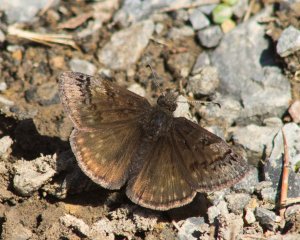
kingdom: Animalia
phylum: Arthropoda
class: Insecta
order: Lepidoptera
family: Hesperiidae
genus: Erynnis
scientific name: Erynnis brizo
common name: Sleepy Duskywing
